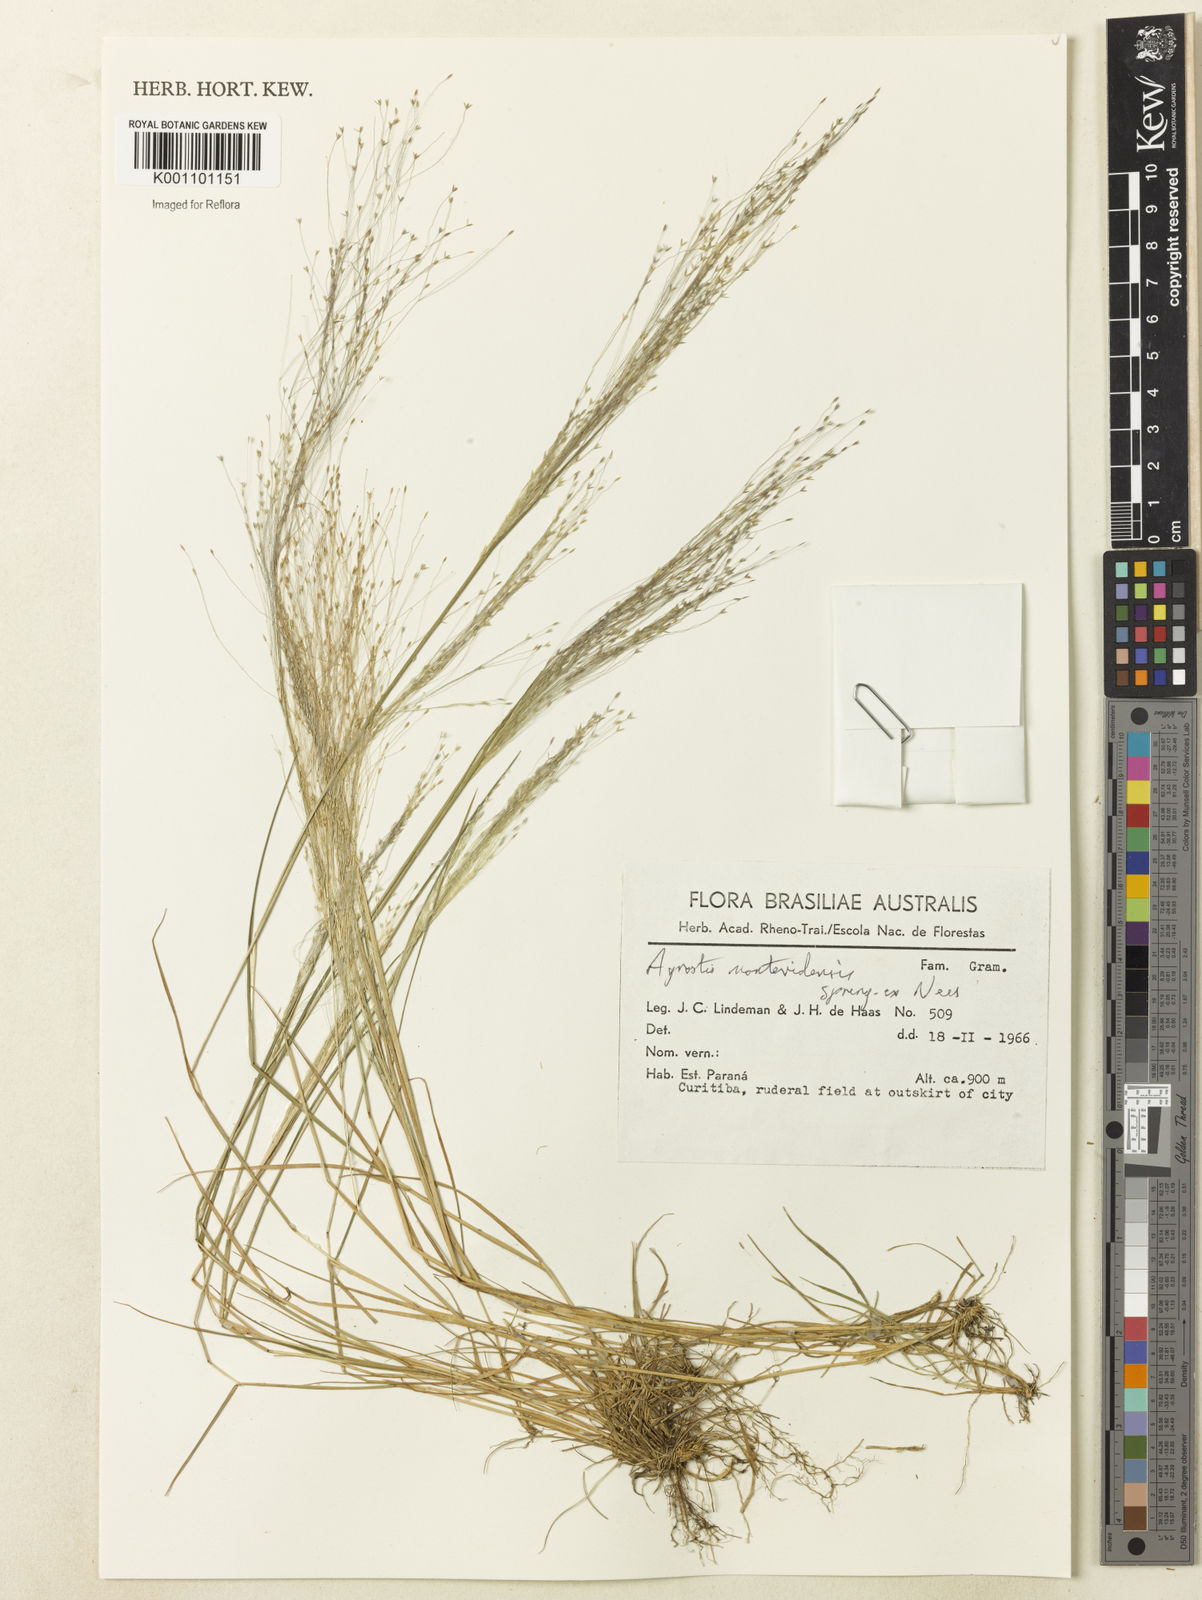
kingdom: Plantae
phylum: Tracheophyta
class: Liliopsida
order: Poales
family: Poaceae
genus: Agrostis
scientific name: Agrostis montevidensis
